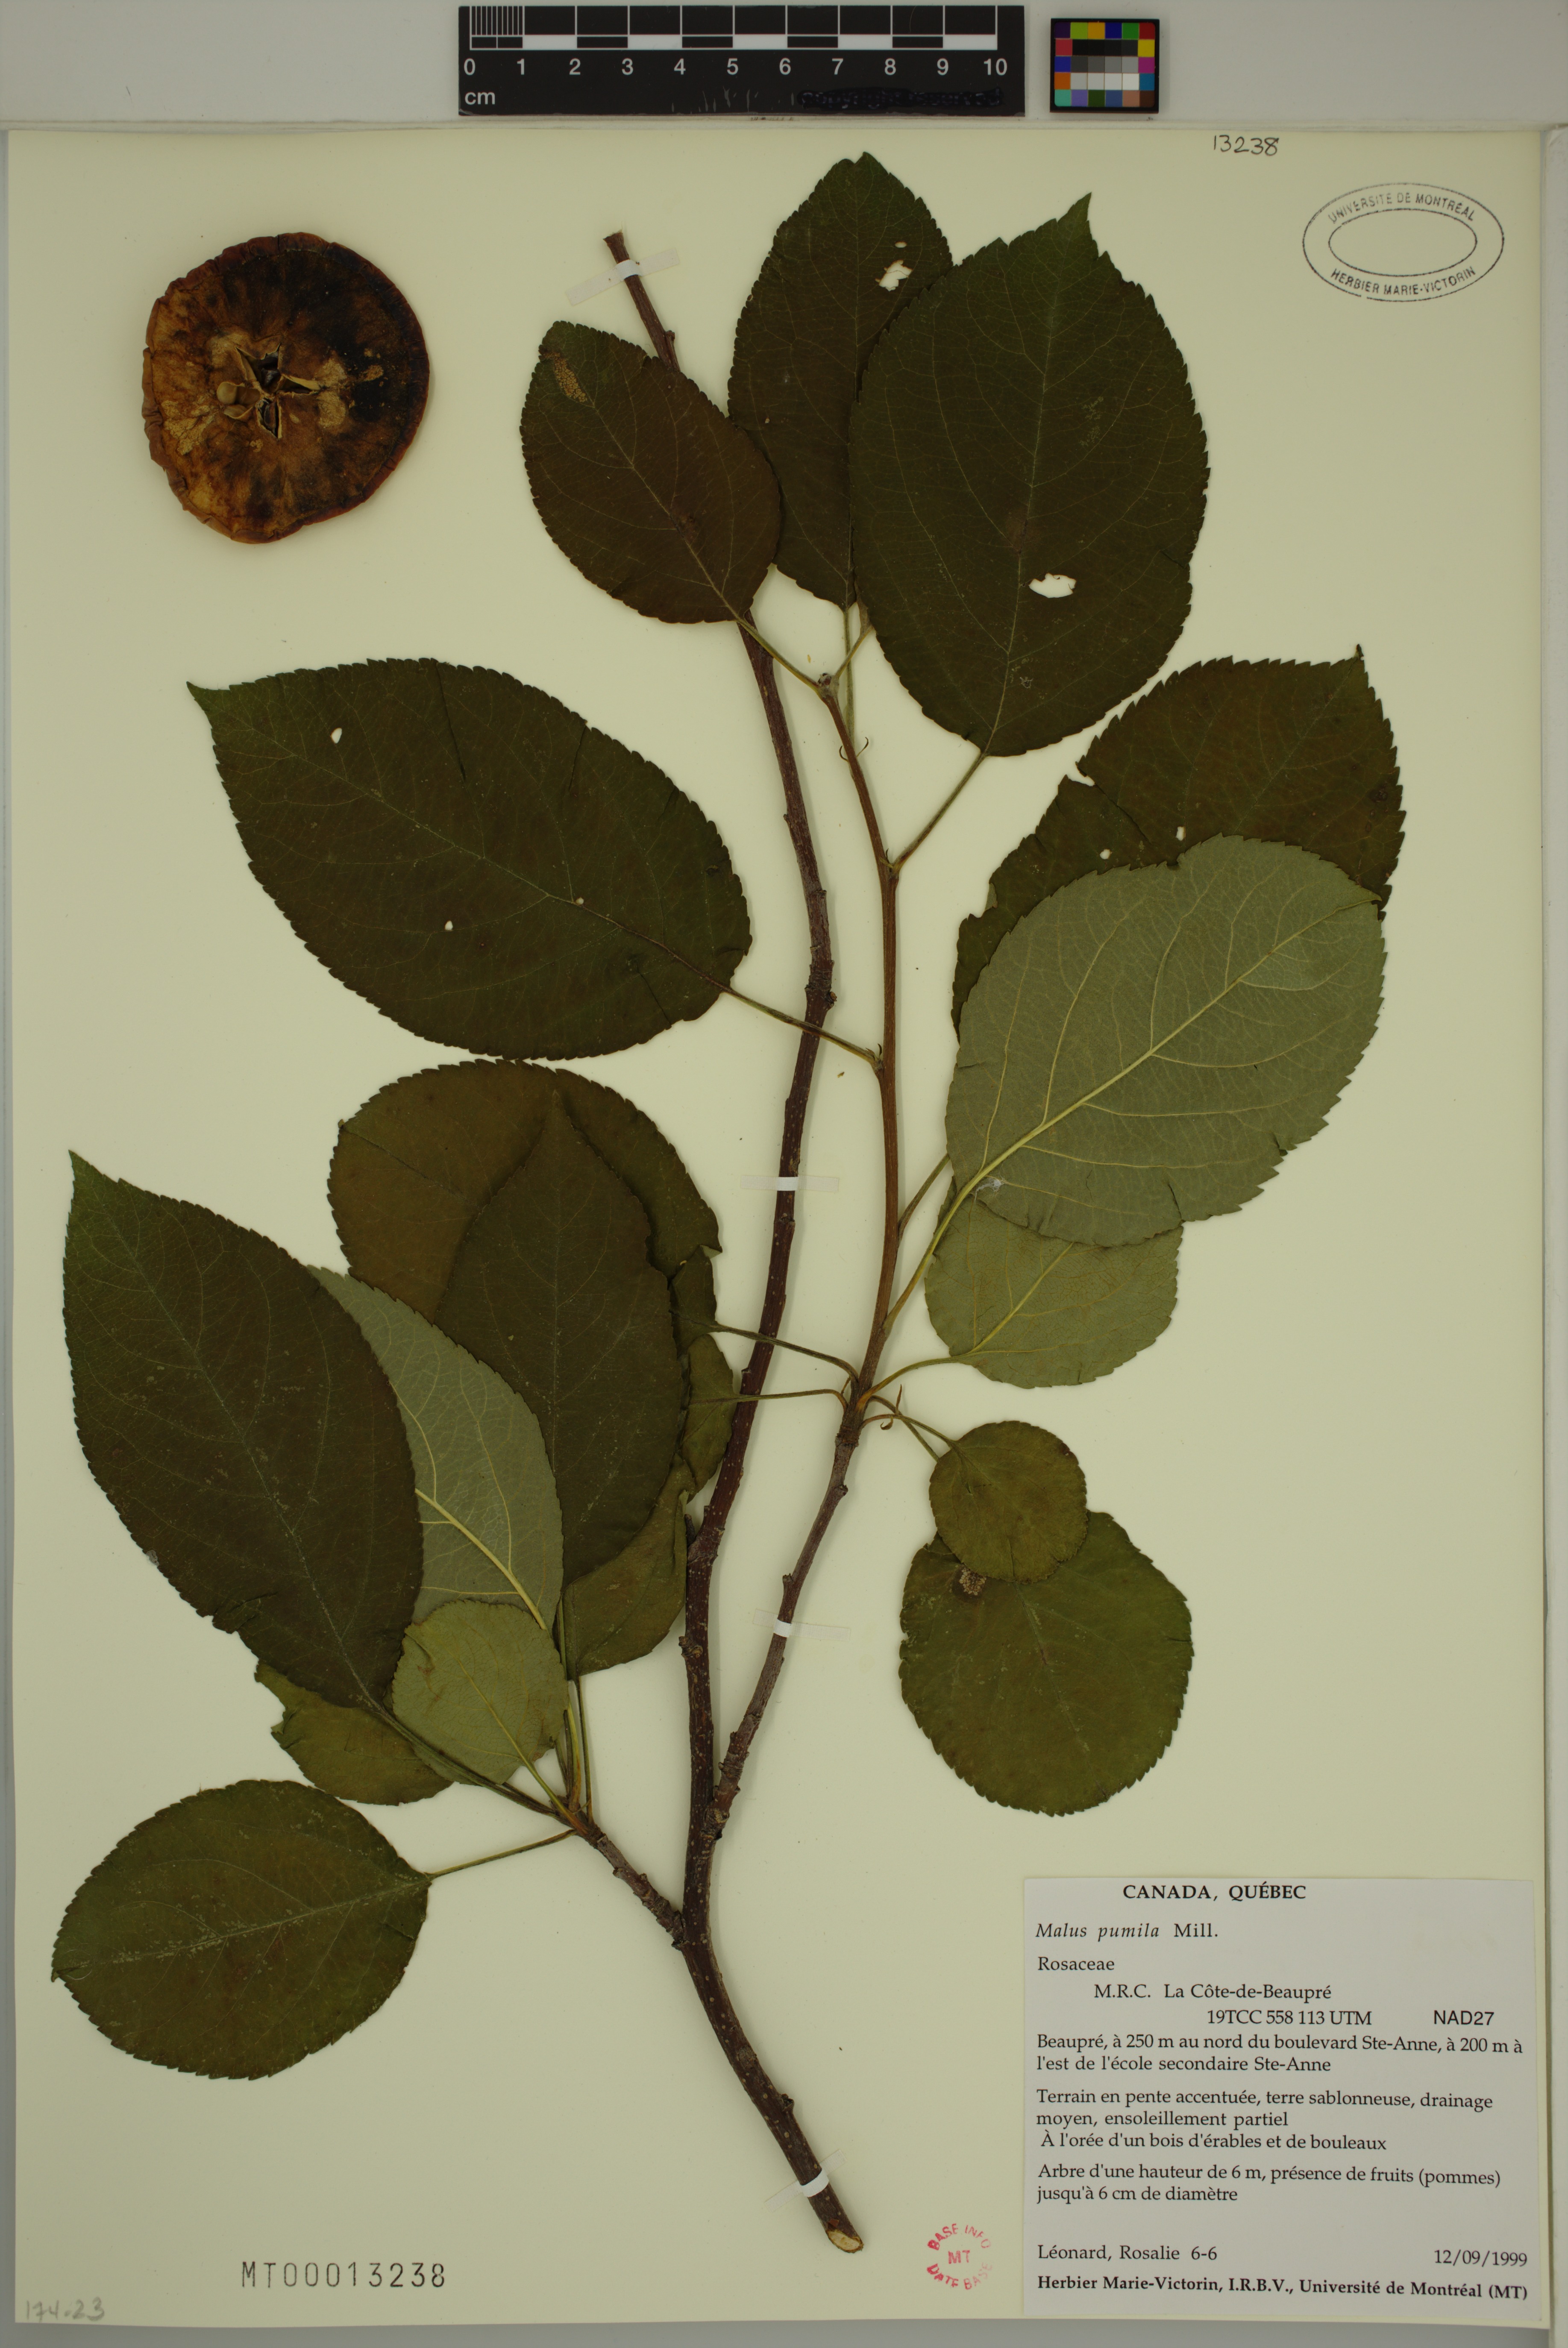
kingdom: Plantae
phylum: Tracheophyta
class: Magnoliopsida
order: Rosales
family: Rosaceae
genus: Malus
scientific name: Malus domestica
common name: Apple
